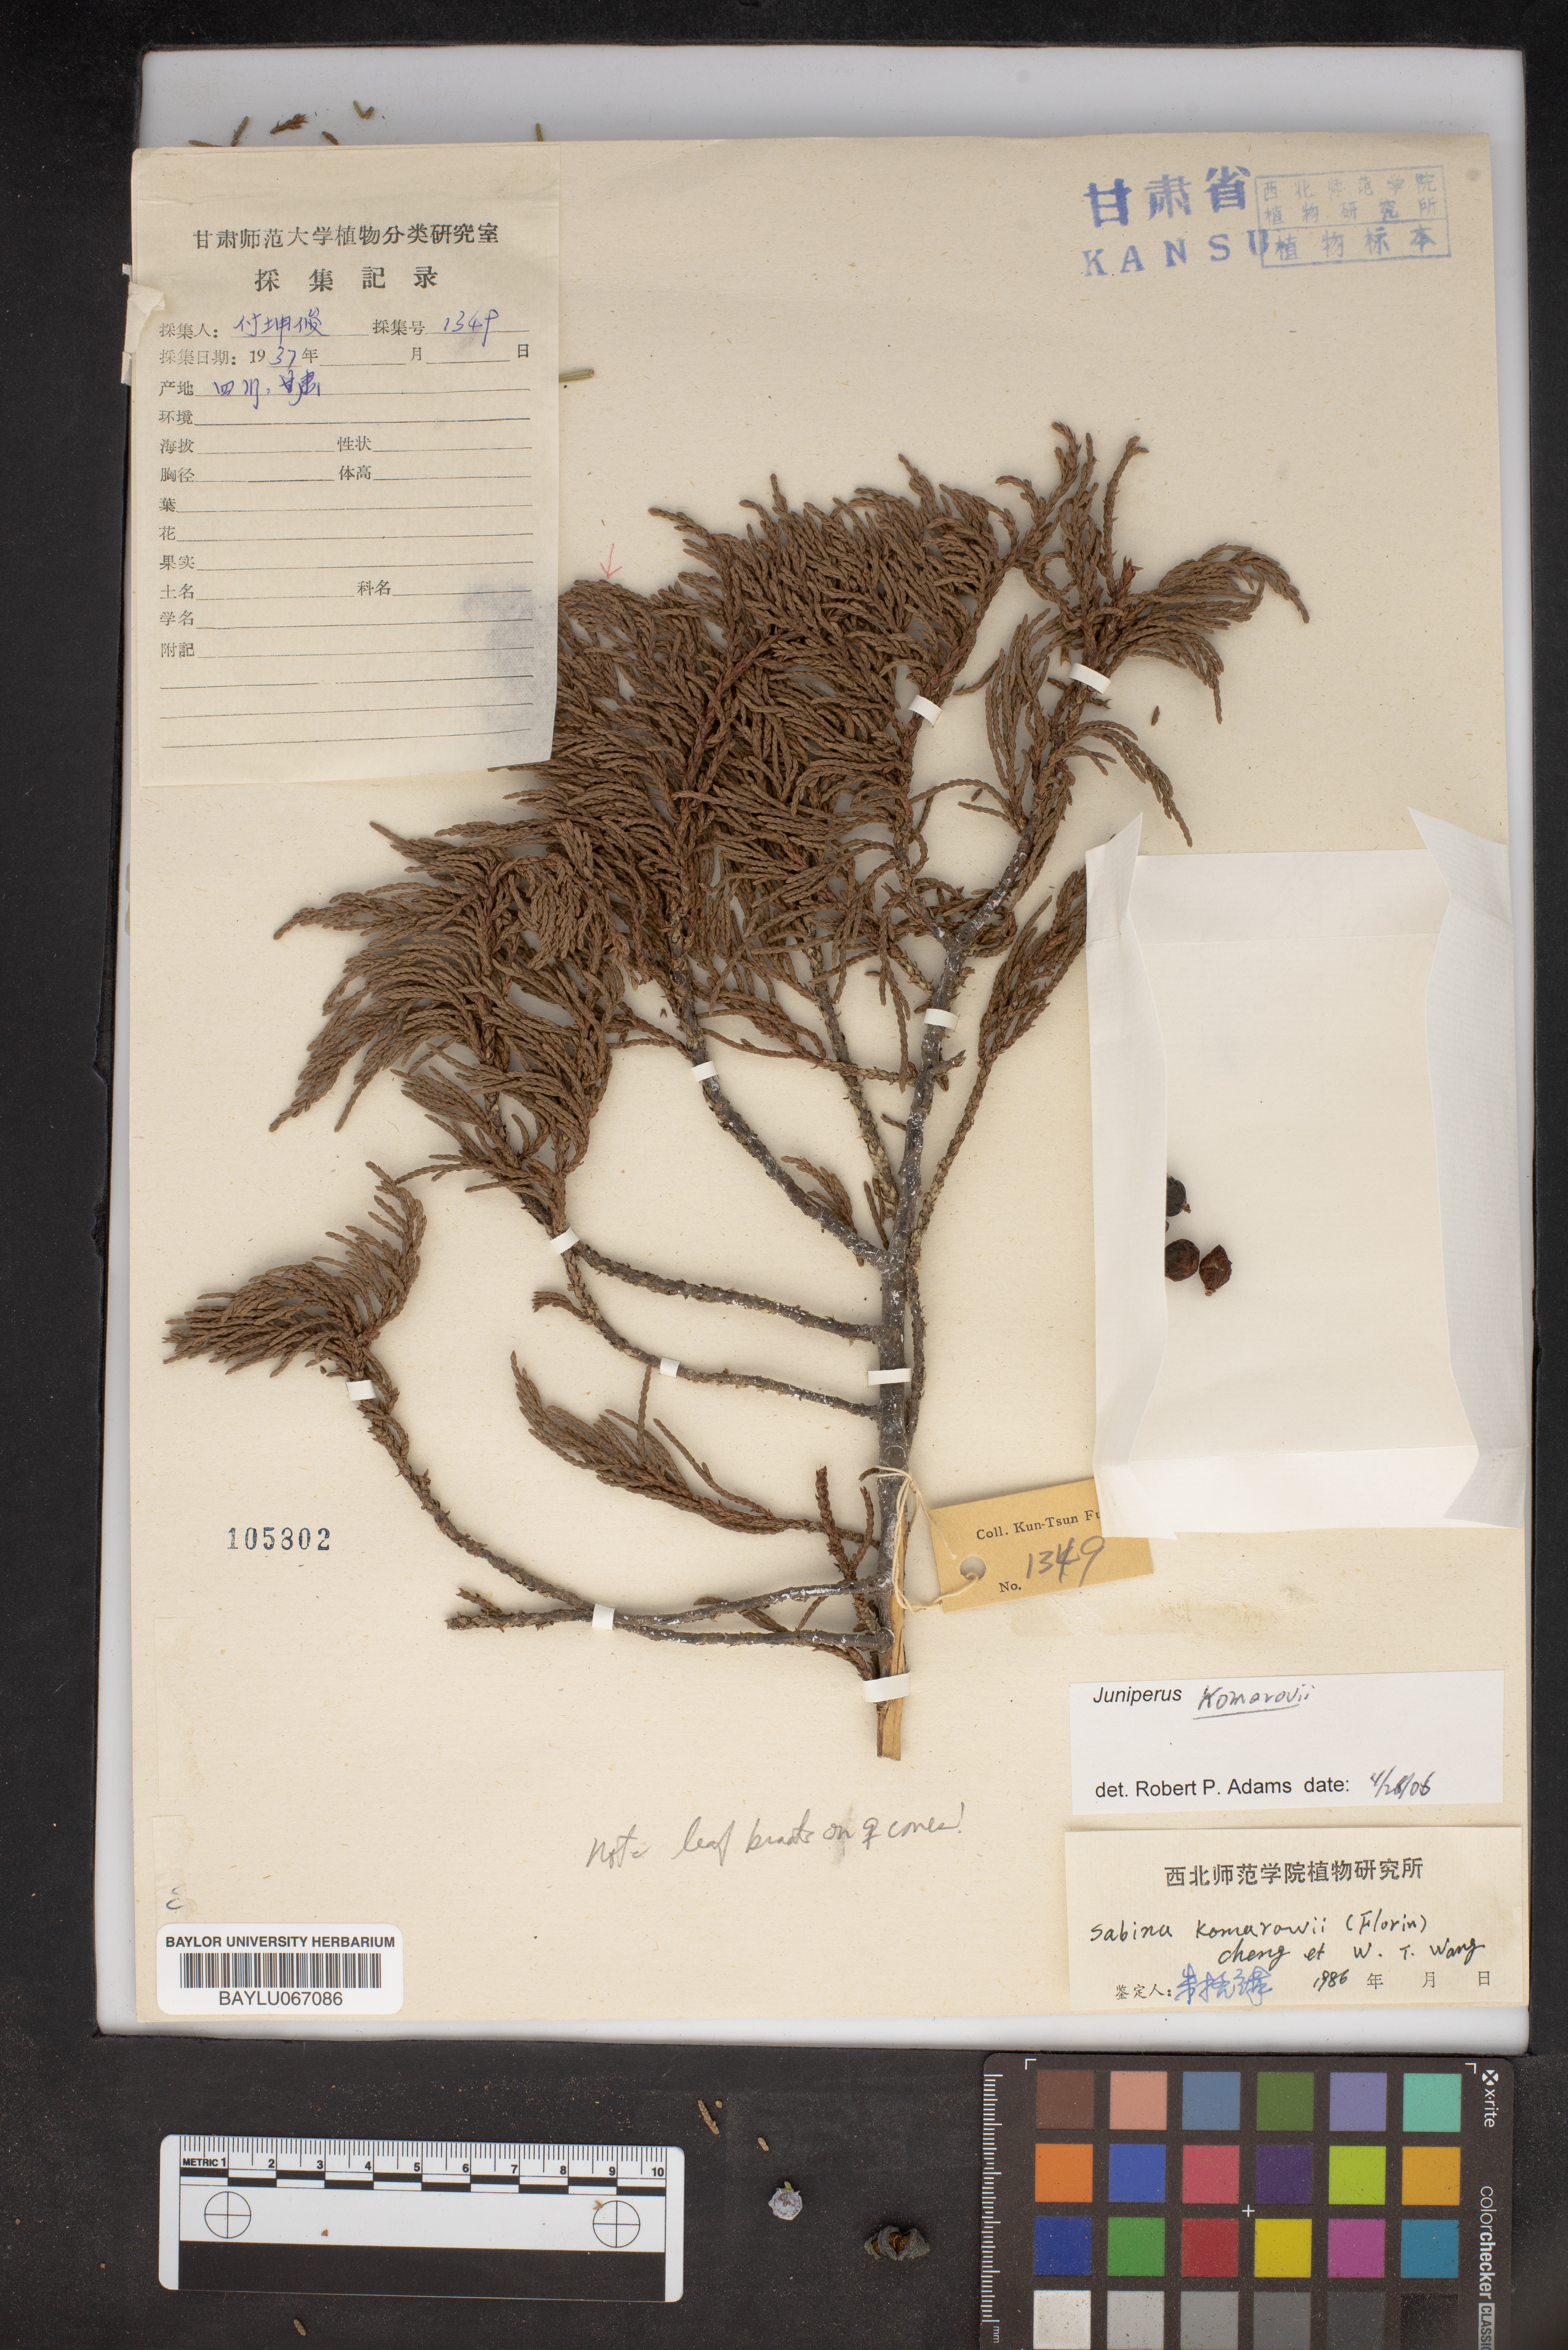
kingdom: Plantae
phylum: Tracheophyta
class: Pinopsida
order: Pinales
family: Cupressaceae
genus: Juniperus
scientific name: Juniperus komarovii
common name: Komarov's juniper
